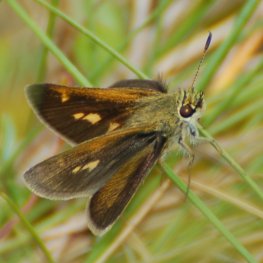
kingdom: Animalia
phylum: Arthropoda
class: Insecta
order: Lepidoptera
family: Hesperiidae
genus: Polites
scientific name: Polites themistocles
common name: Tawny-edged Skipper
